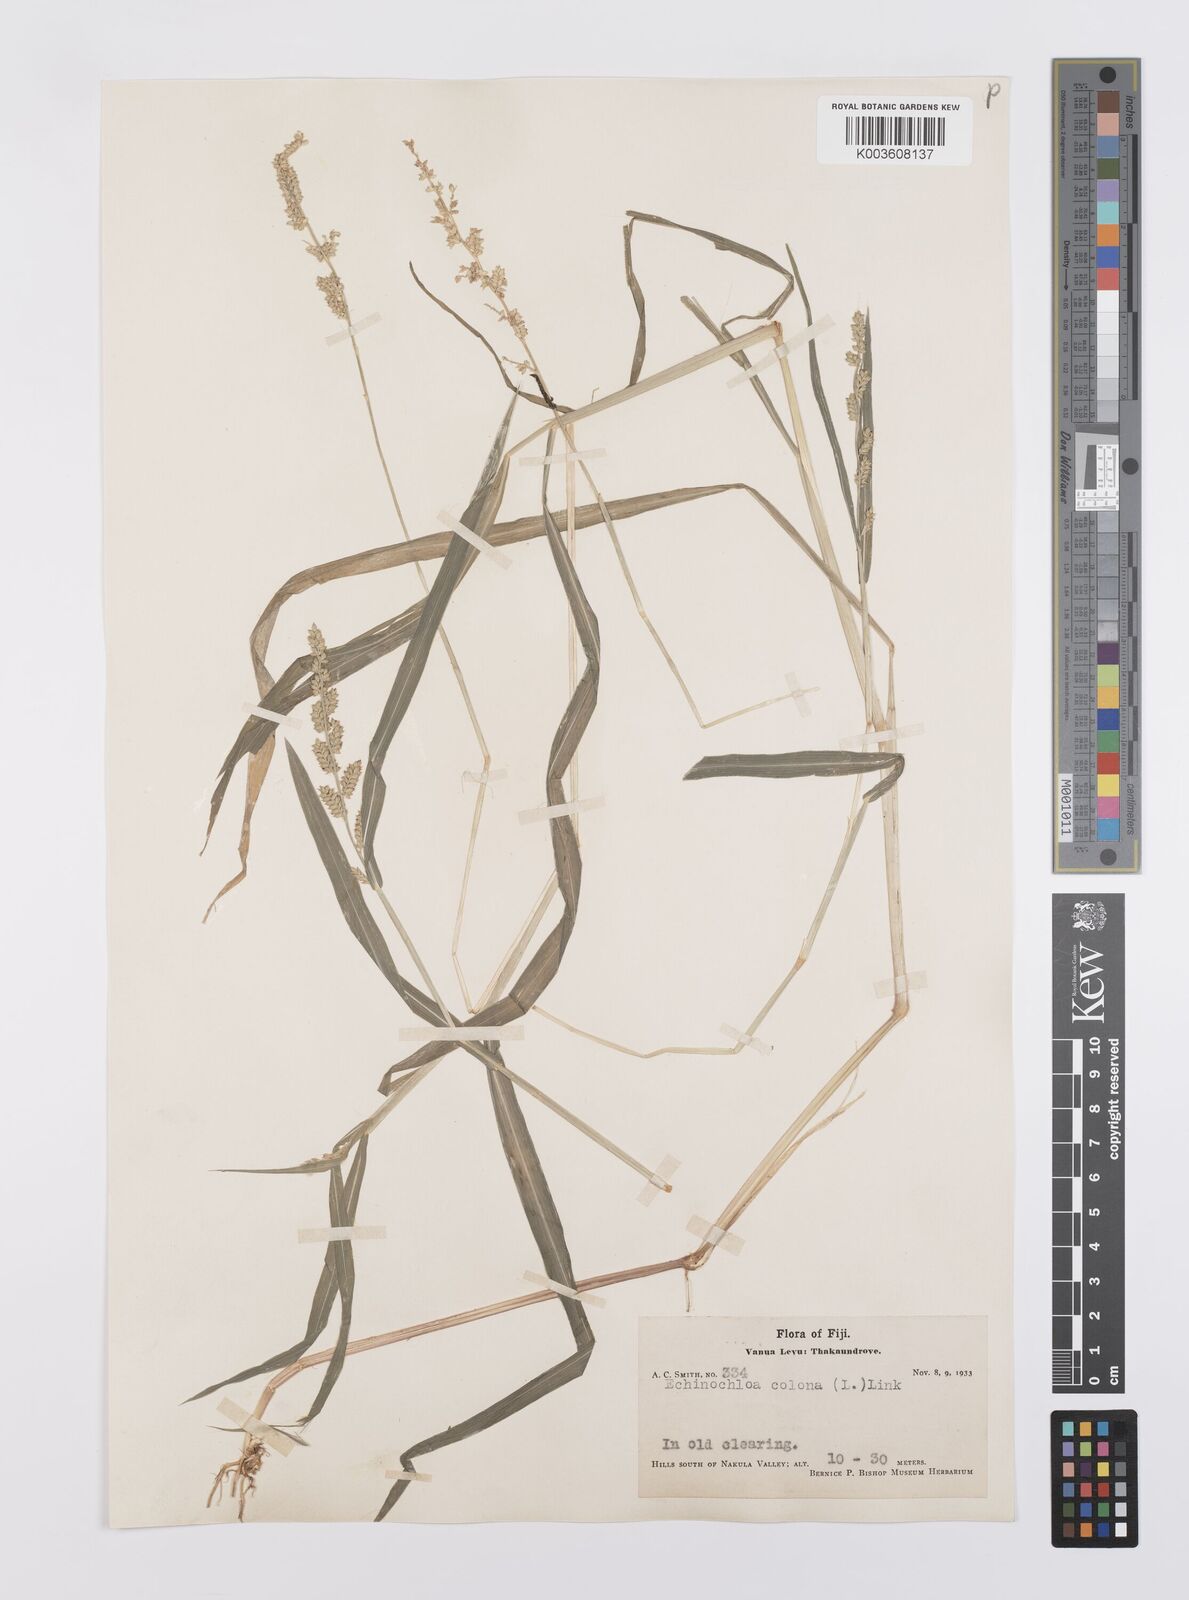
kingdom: Plantae
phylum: Tracheophyta
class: Liliopsida
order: Poales
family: Poaceae
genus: Echinochloa
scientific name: Echinochloa colonum
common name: Jungle rice
